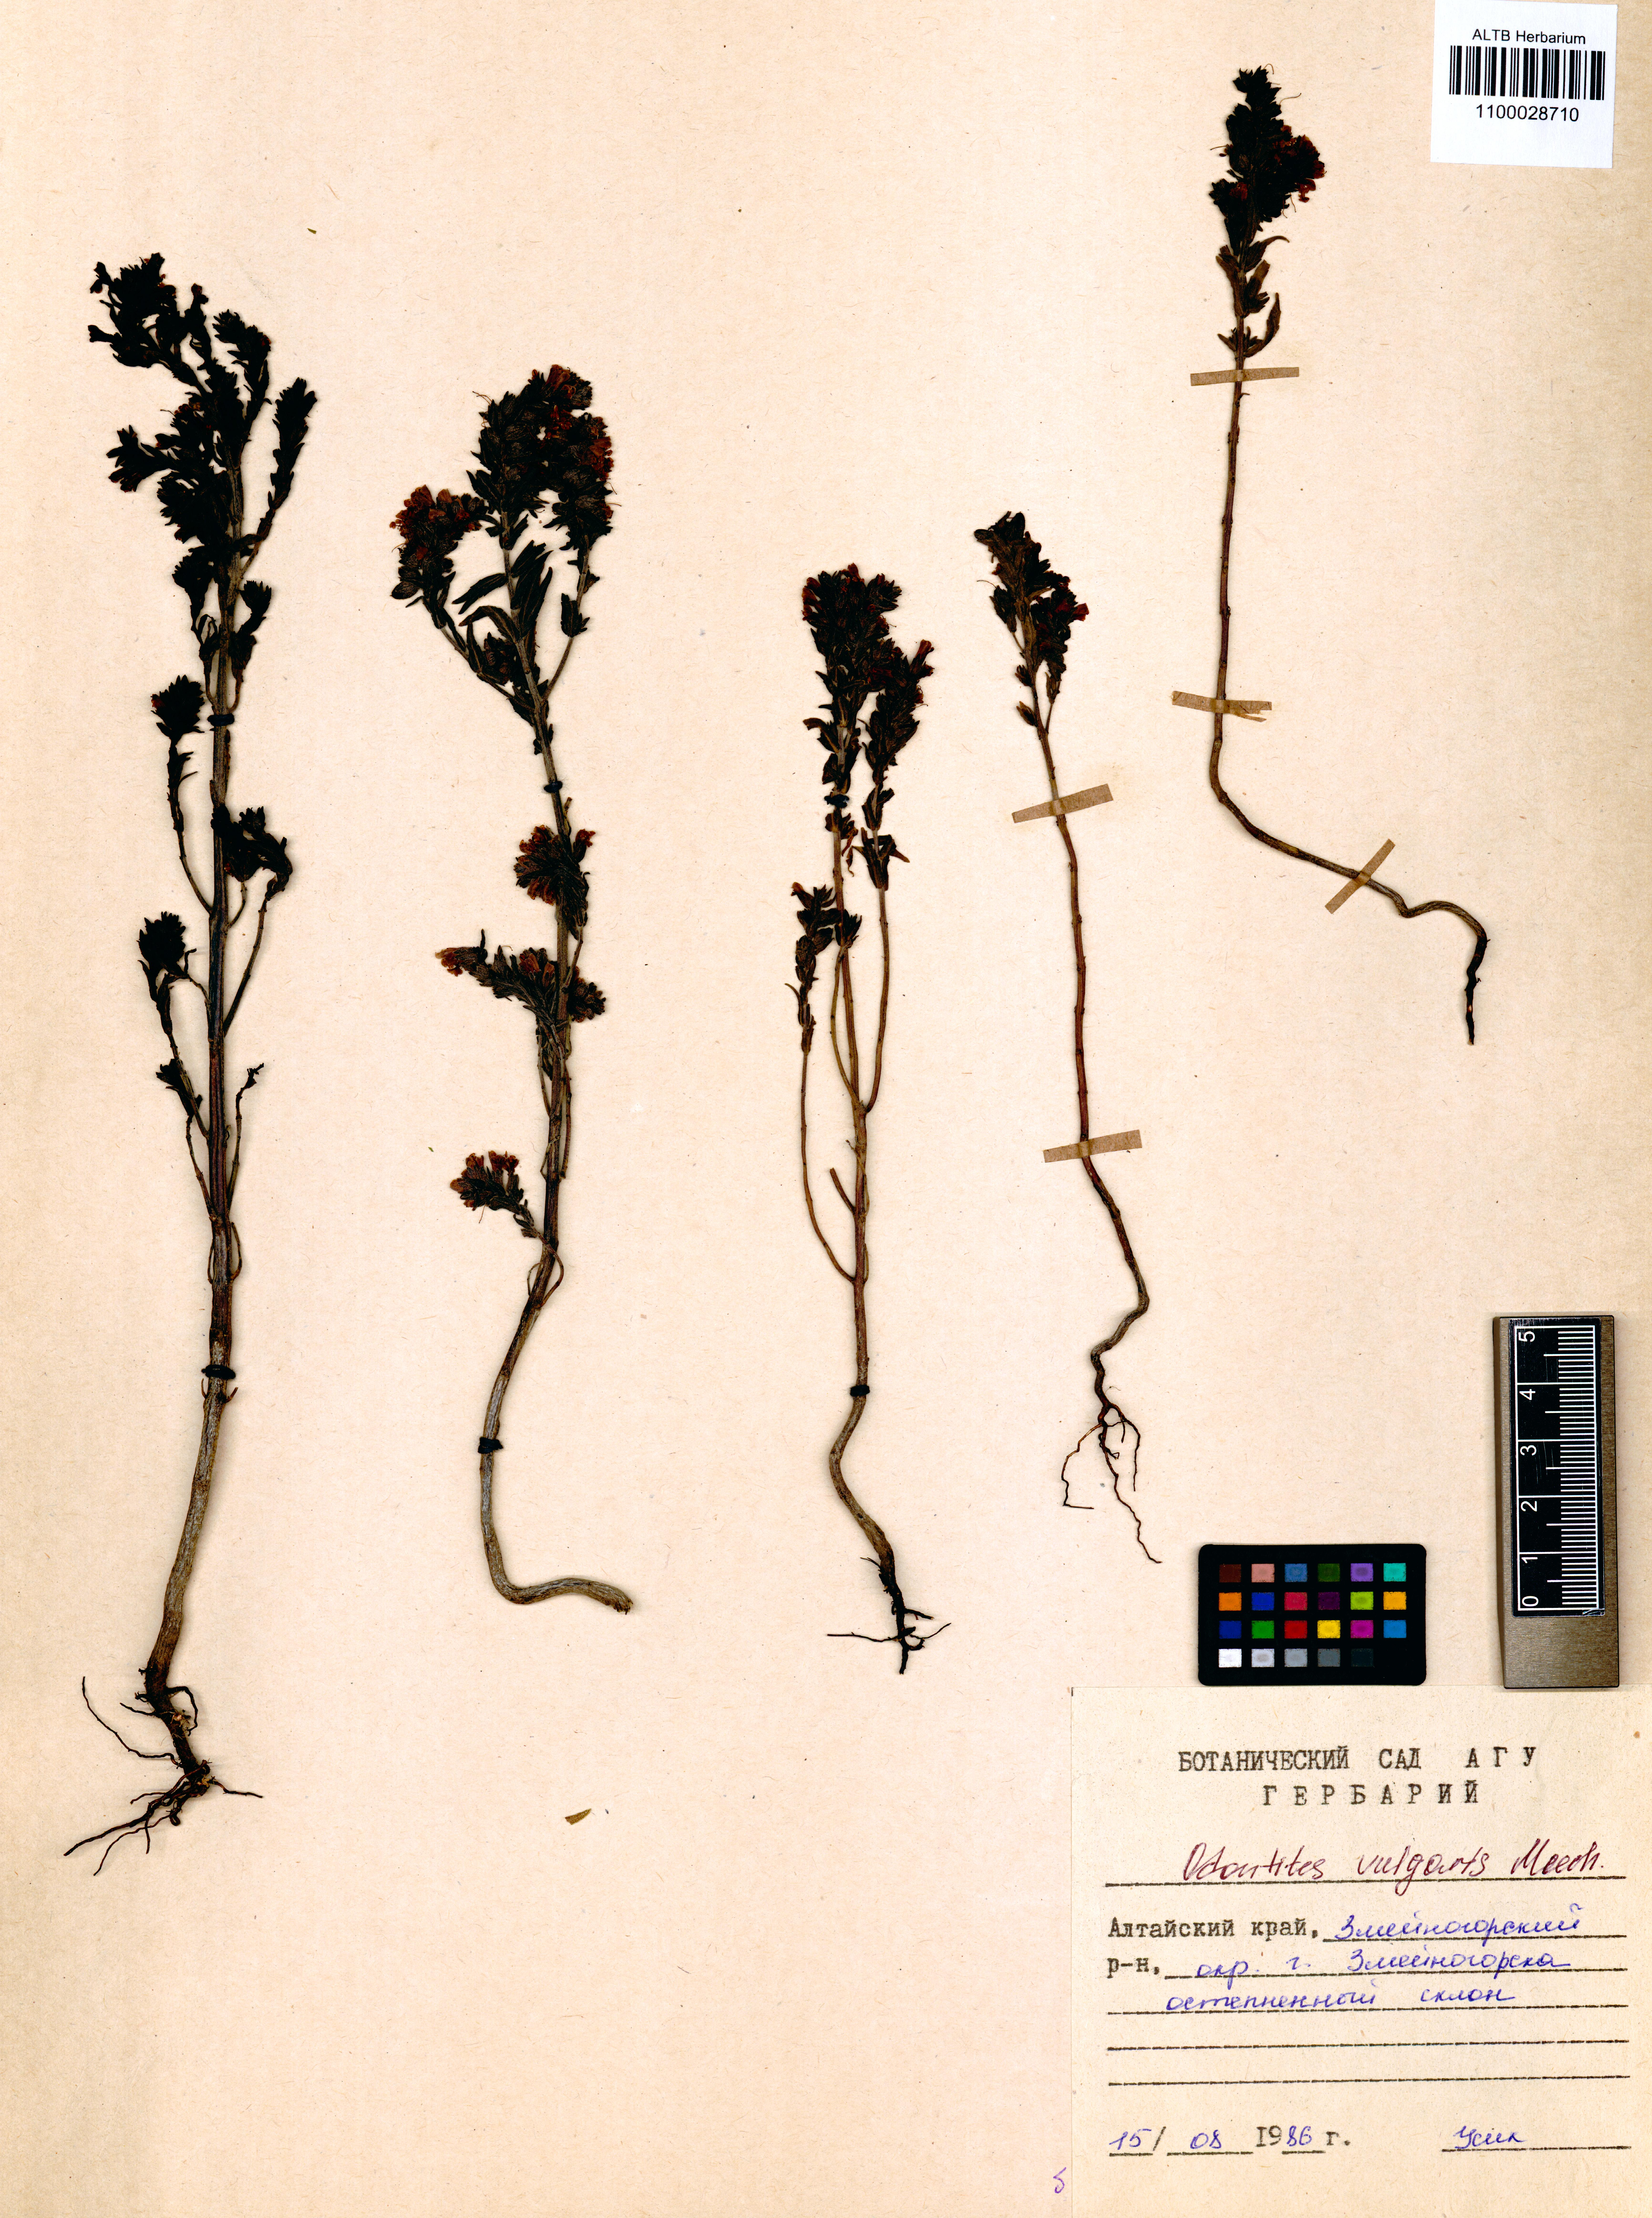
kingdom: Plantae
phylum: Tracheophyta
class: Magnoliopsida
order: Lamiales
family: Orobanchaceae
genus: Odontites
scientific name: Odontites vulgaris
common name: Broomrape
